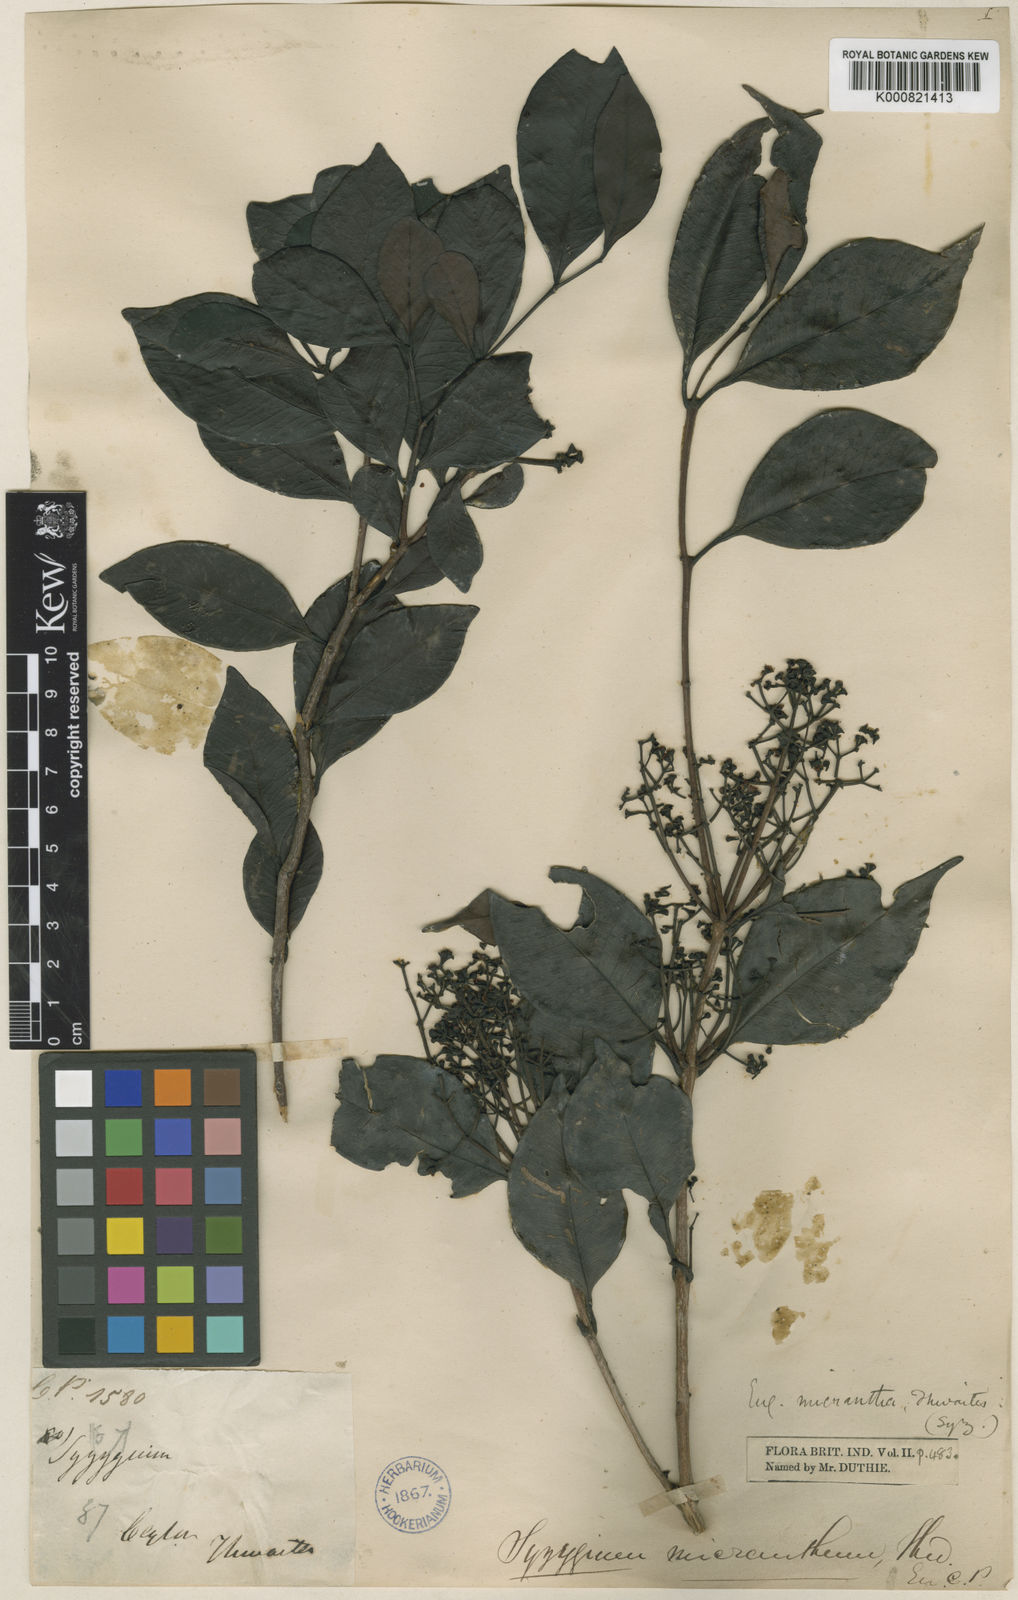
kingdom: Plantae
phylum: Tracheophyta
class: Magnoliopsida
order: Myrtales
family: Myrtaceae
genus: Syzygium
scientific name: Syzygium micranthum
